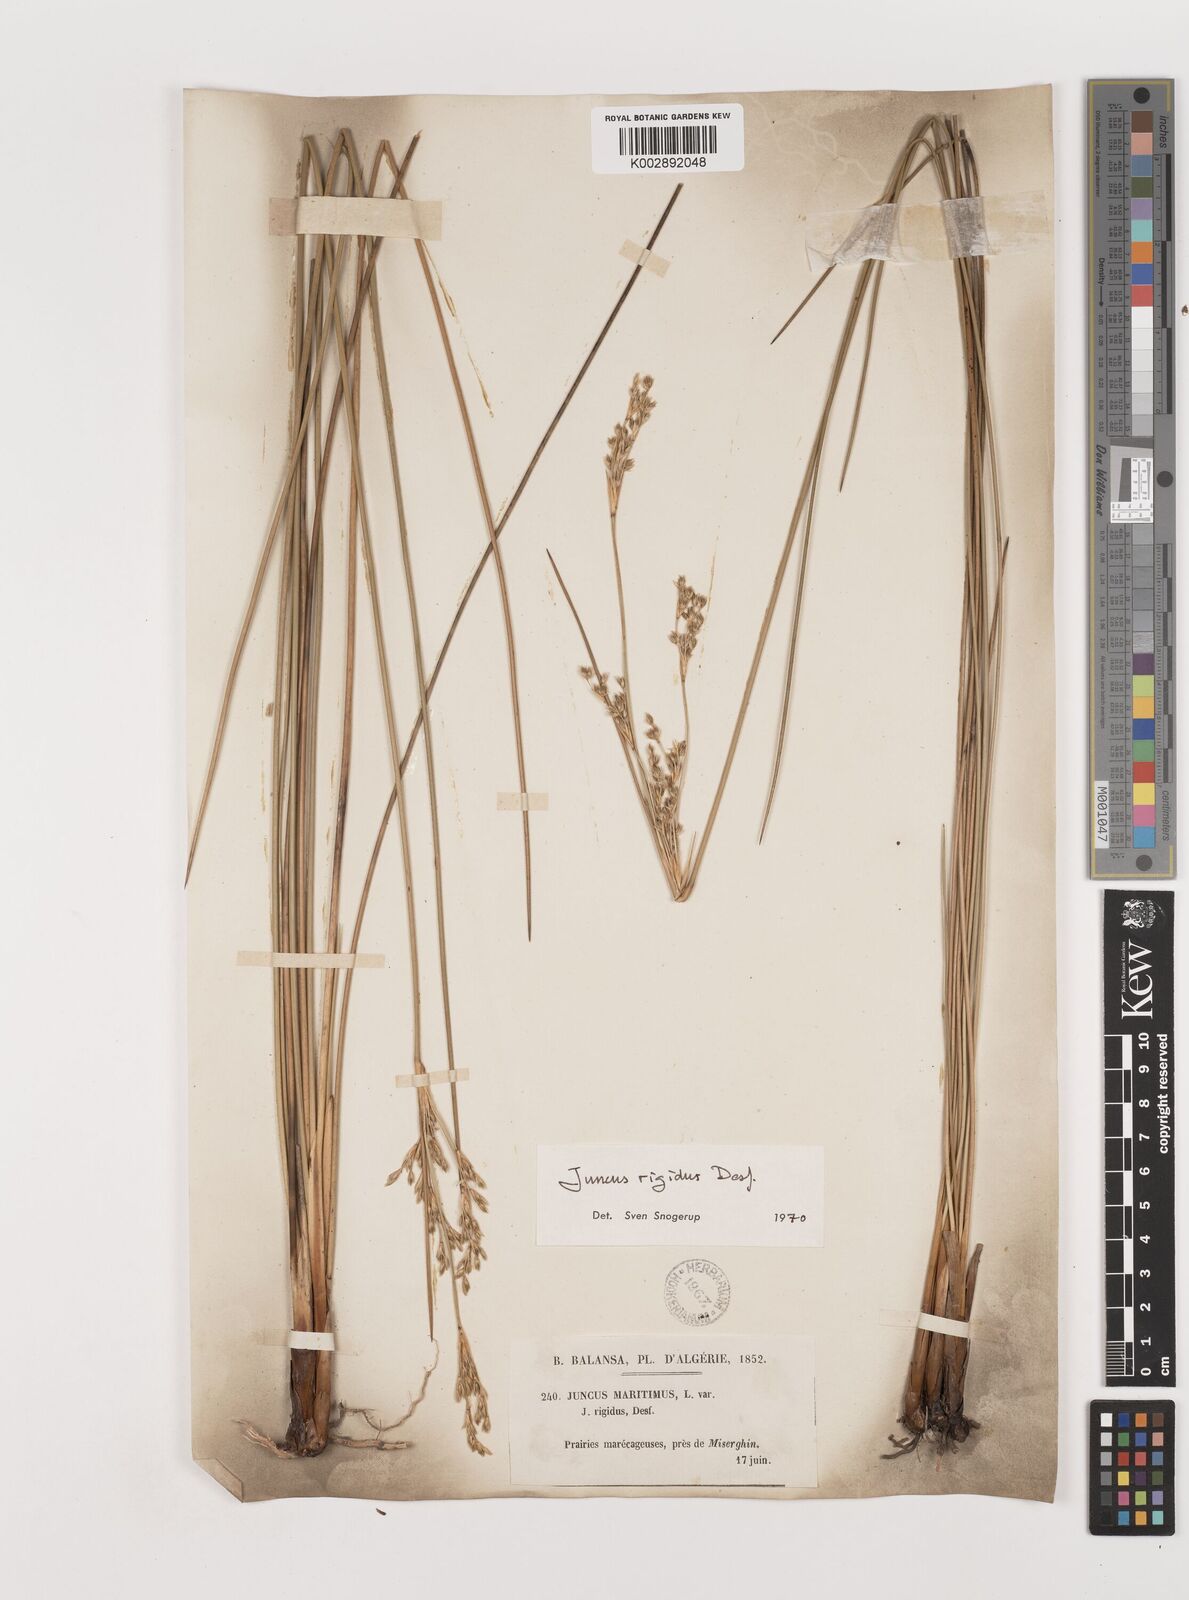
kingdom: Plantae
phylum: Tracheophyta
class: Liliopsida
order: Poales
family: Juncaceae
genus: Juncus
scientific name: Juncus rigidus
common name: Hard sea rush
